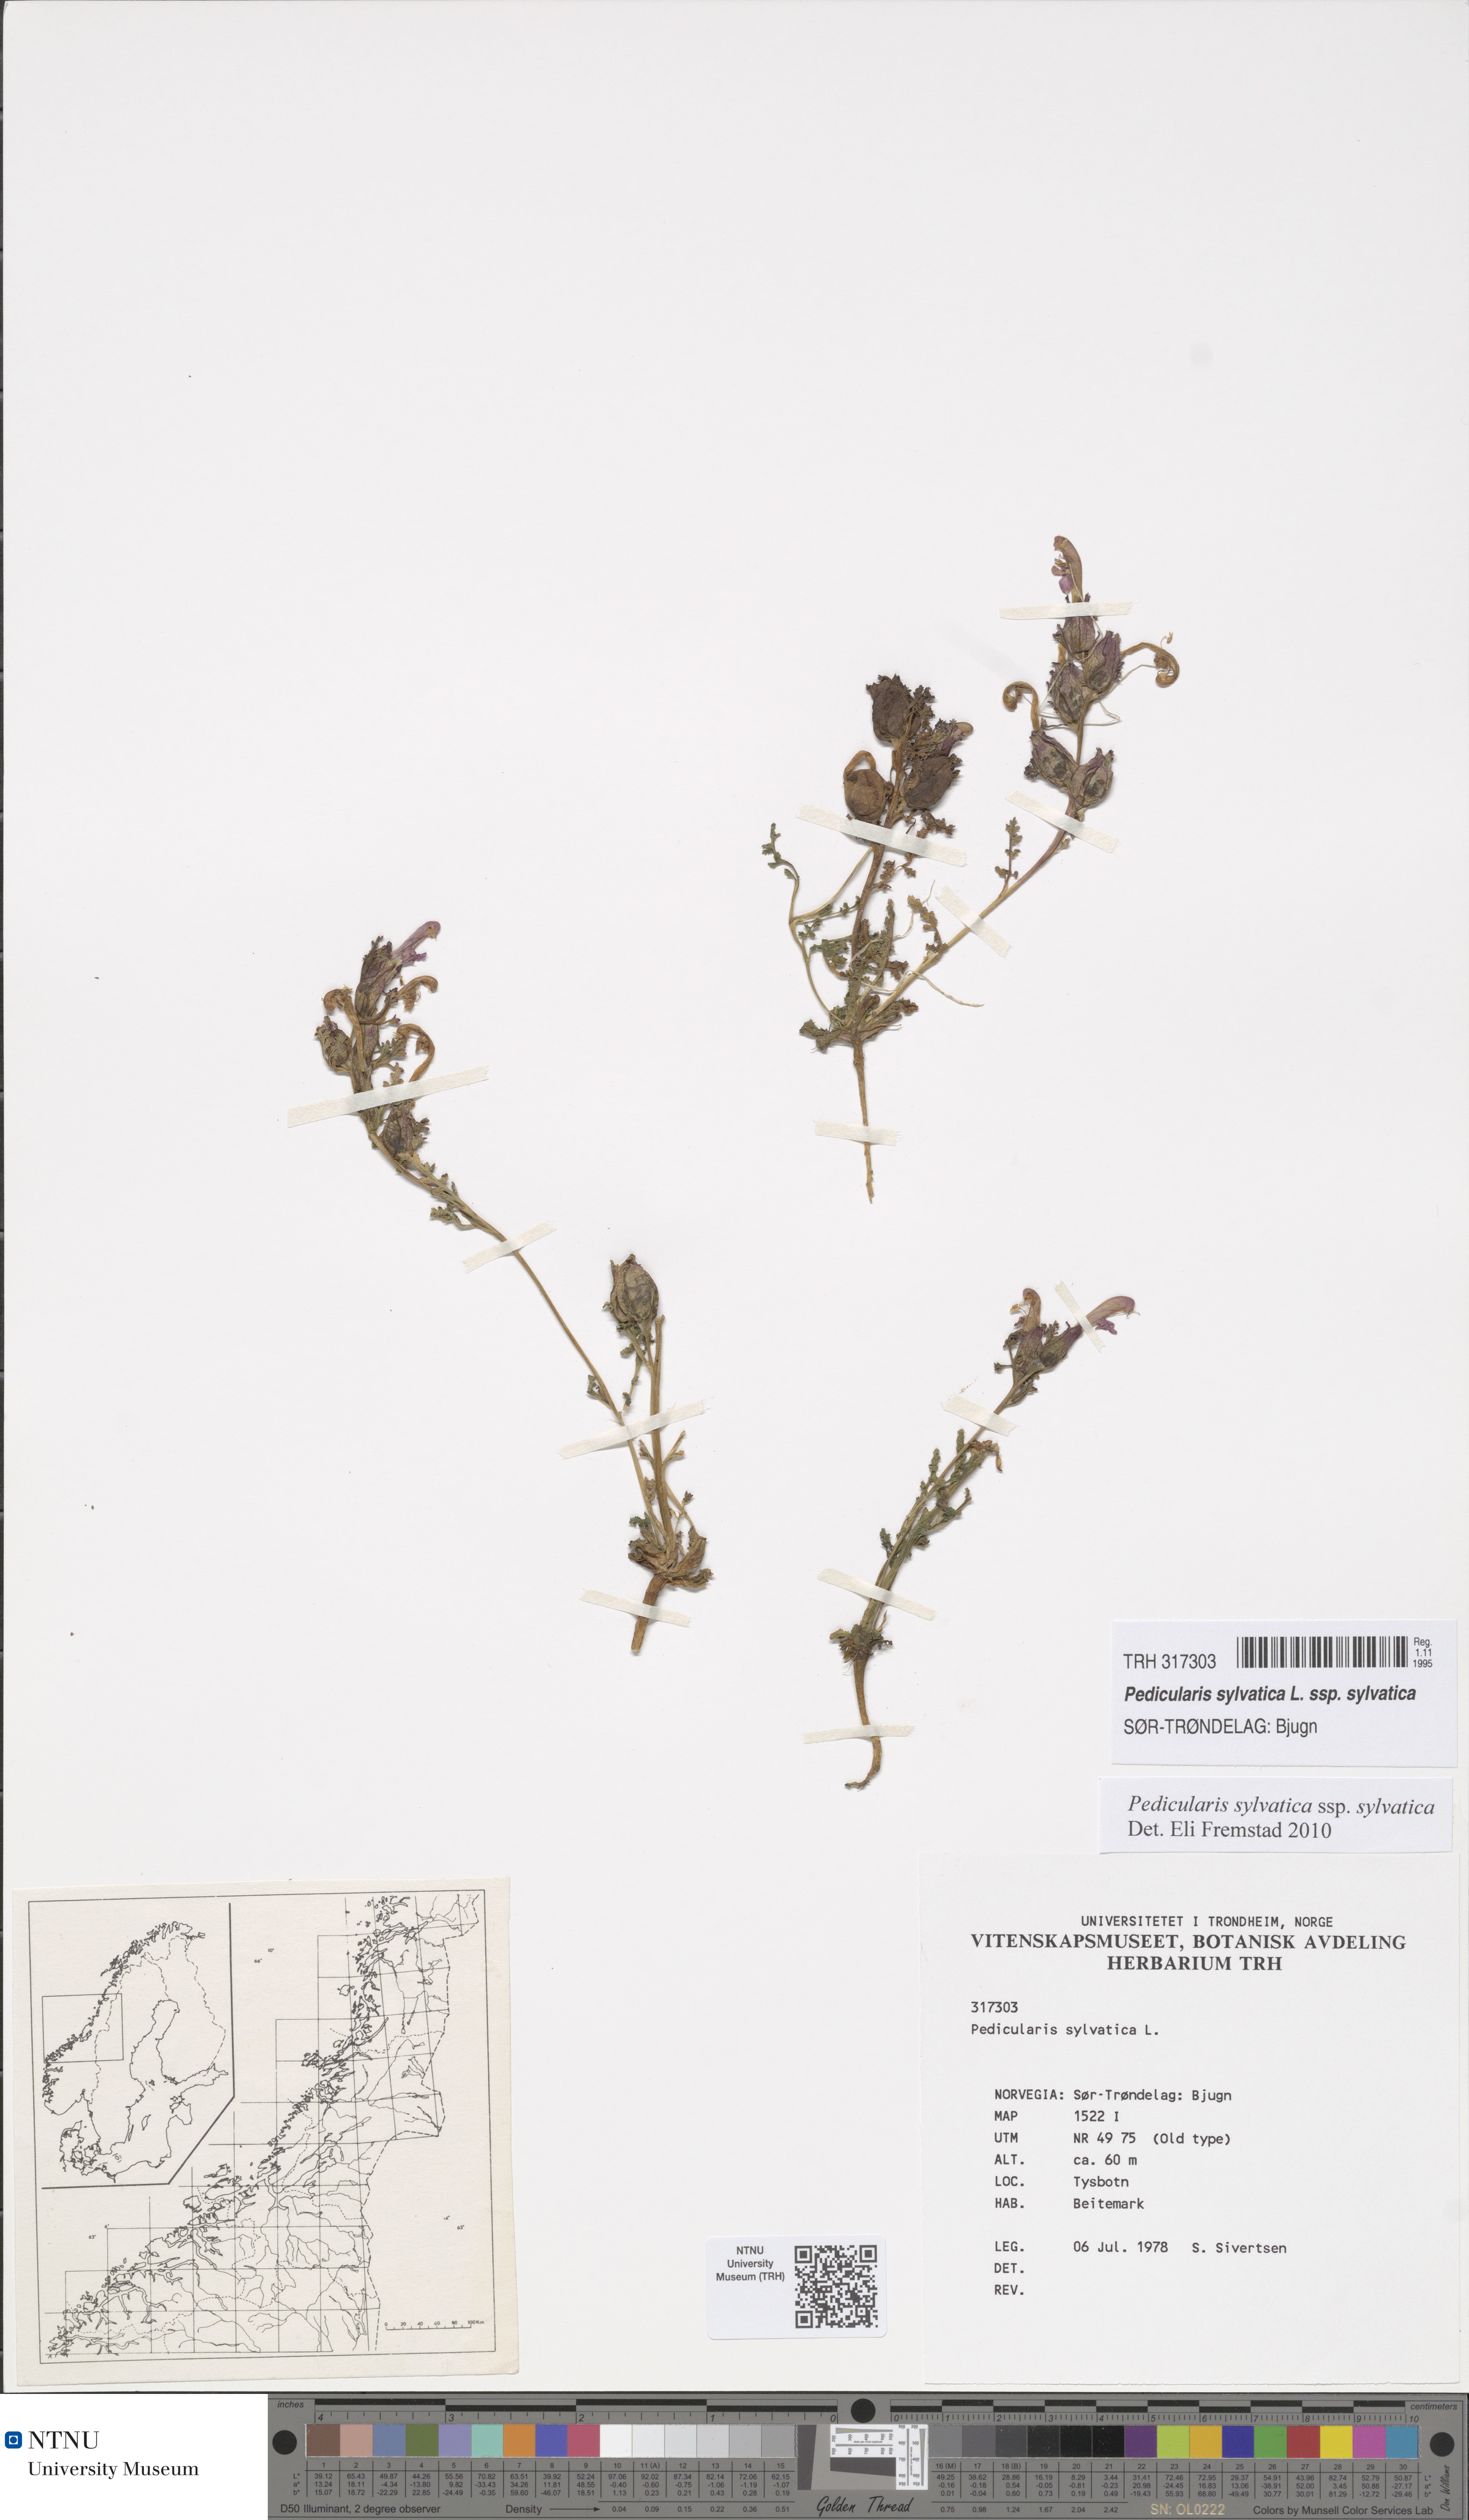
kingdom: Plantae
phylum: Tracheophyta
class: Magnoliopsida
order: Lamiales
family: Orobanchaceae
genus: Pedicularis
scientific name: Pedicularis sylvatica
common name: Lousewort
